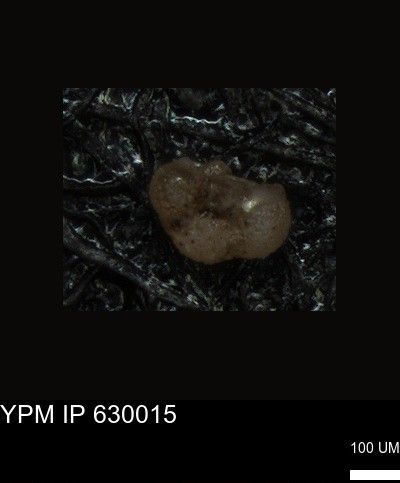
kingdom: Chromista
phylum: Foraminifera
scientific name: Foraminifera
